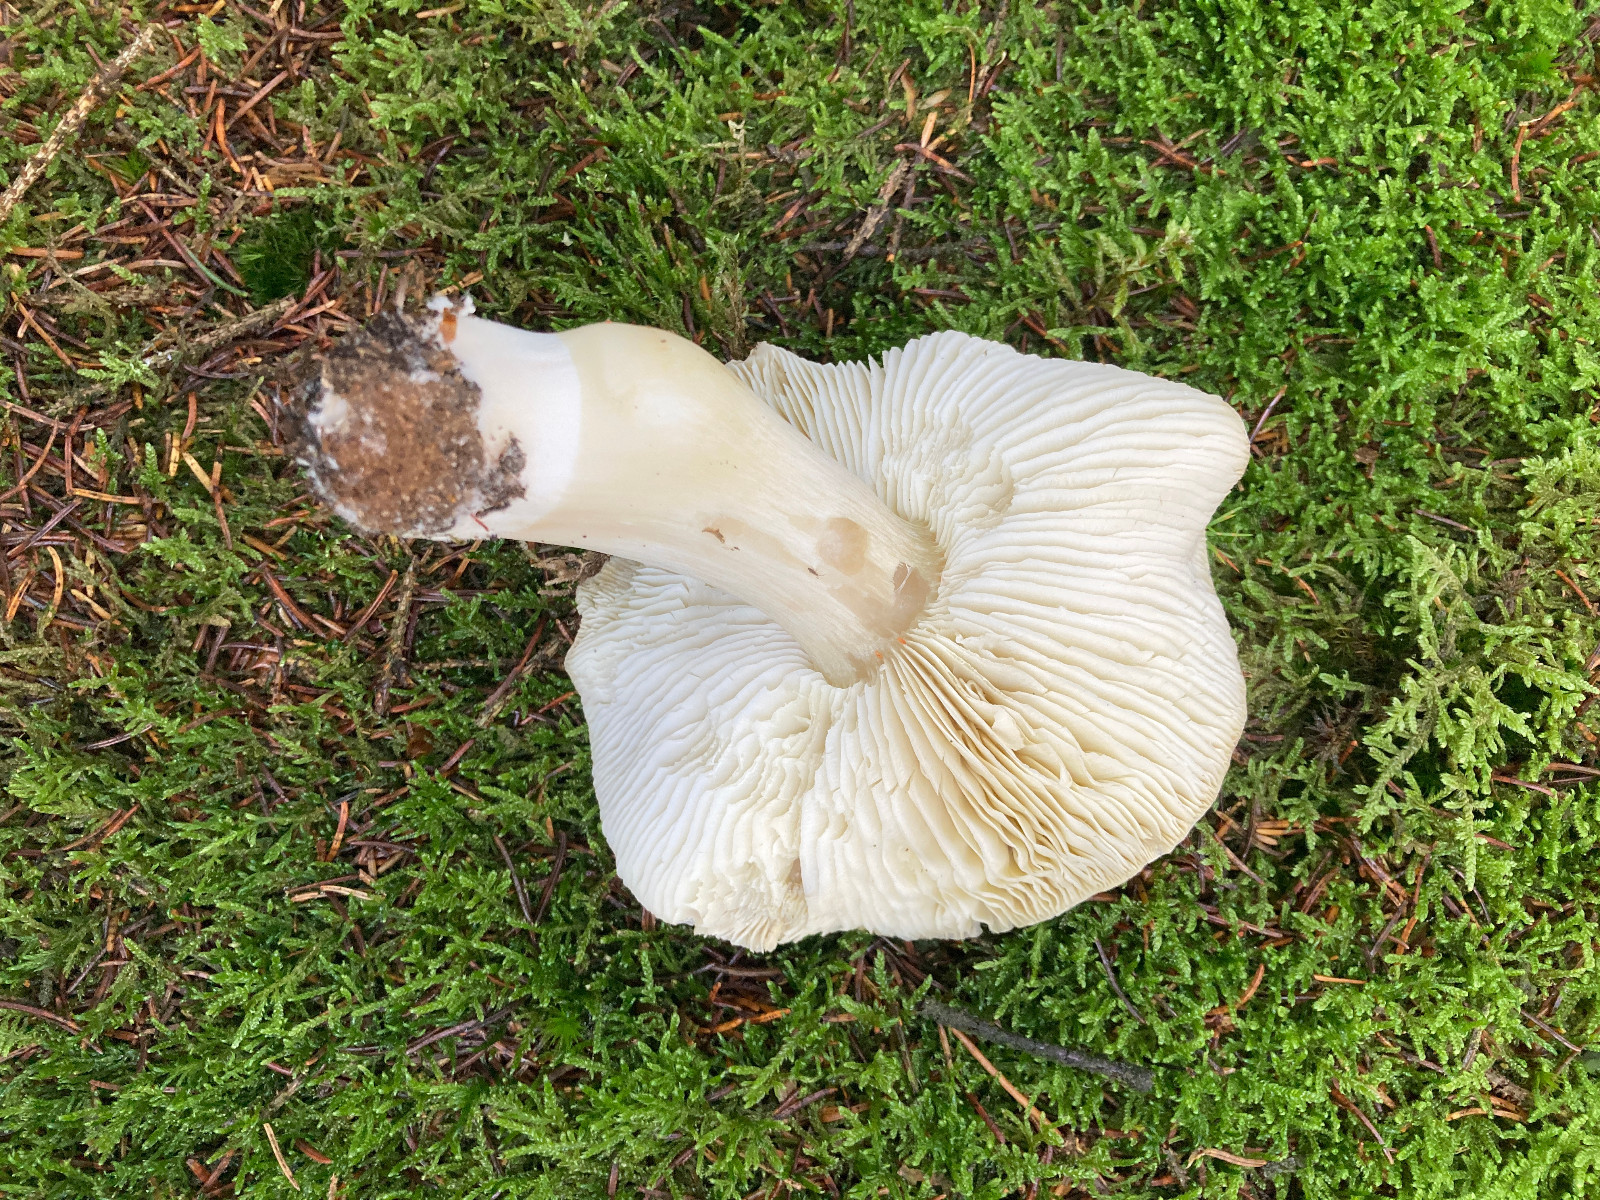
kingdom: Fungi
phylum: Basidiomycota
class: Agaricomycetes
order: Agaricales
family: Tricholomataceae
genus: Tricholoma
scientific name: Tricholoma portentosum
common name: grå ridderhat
